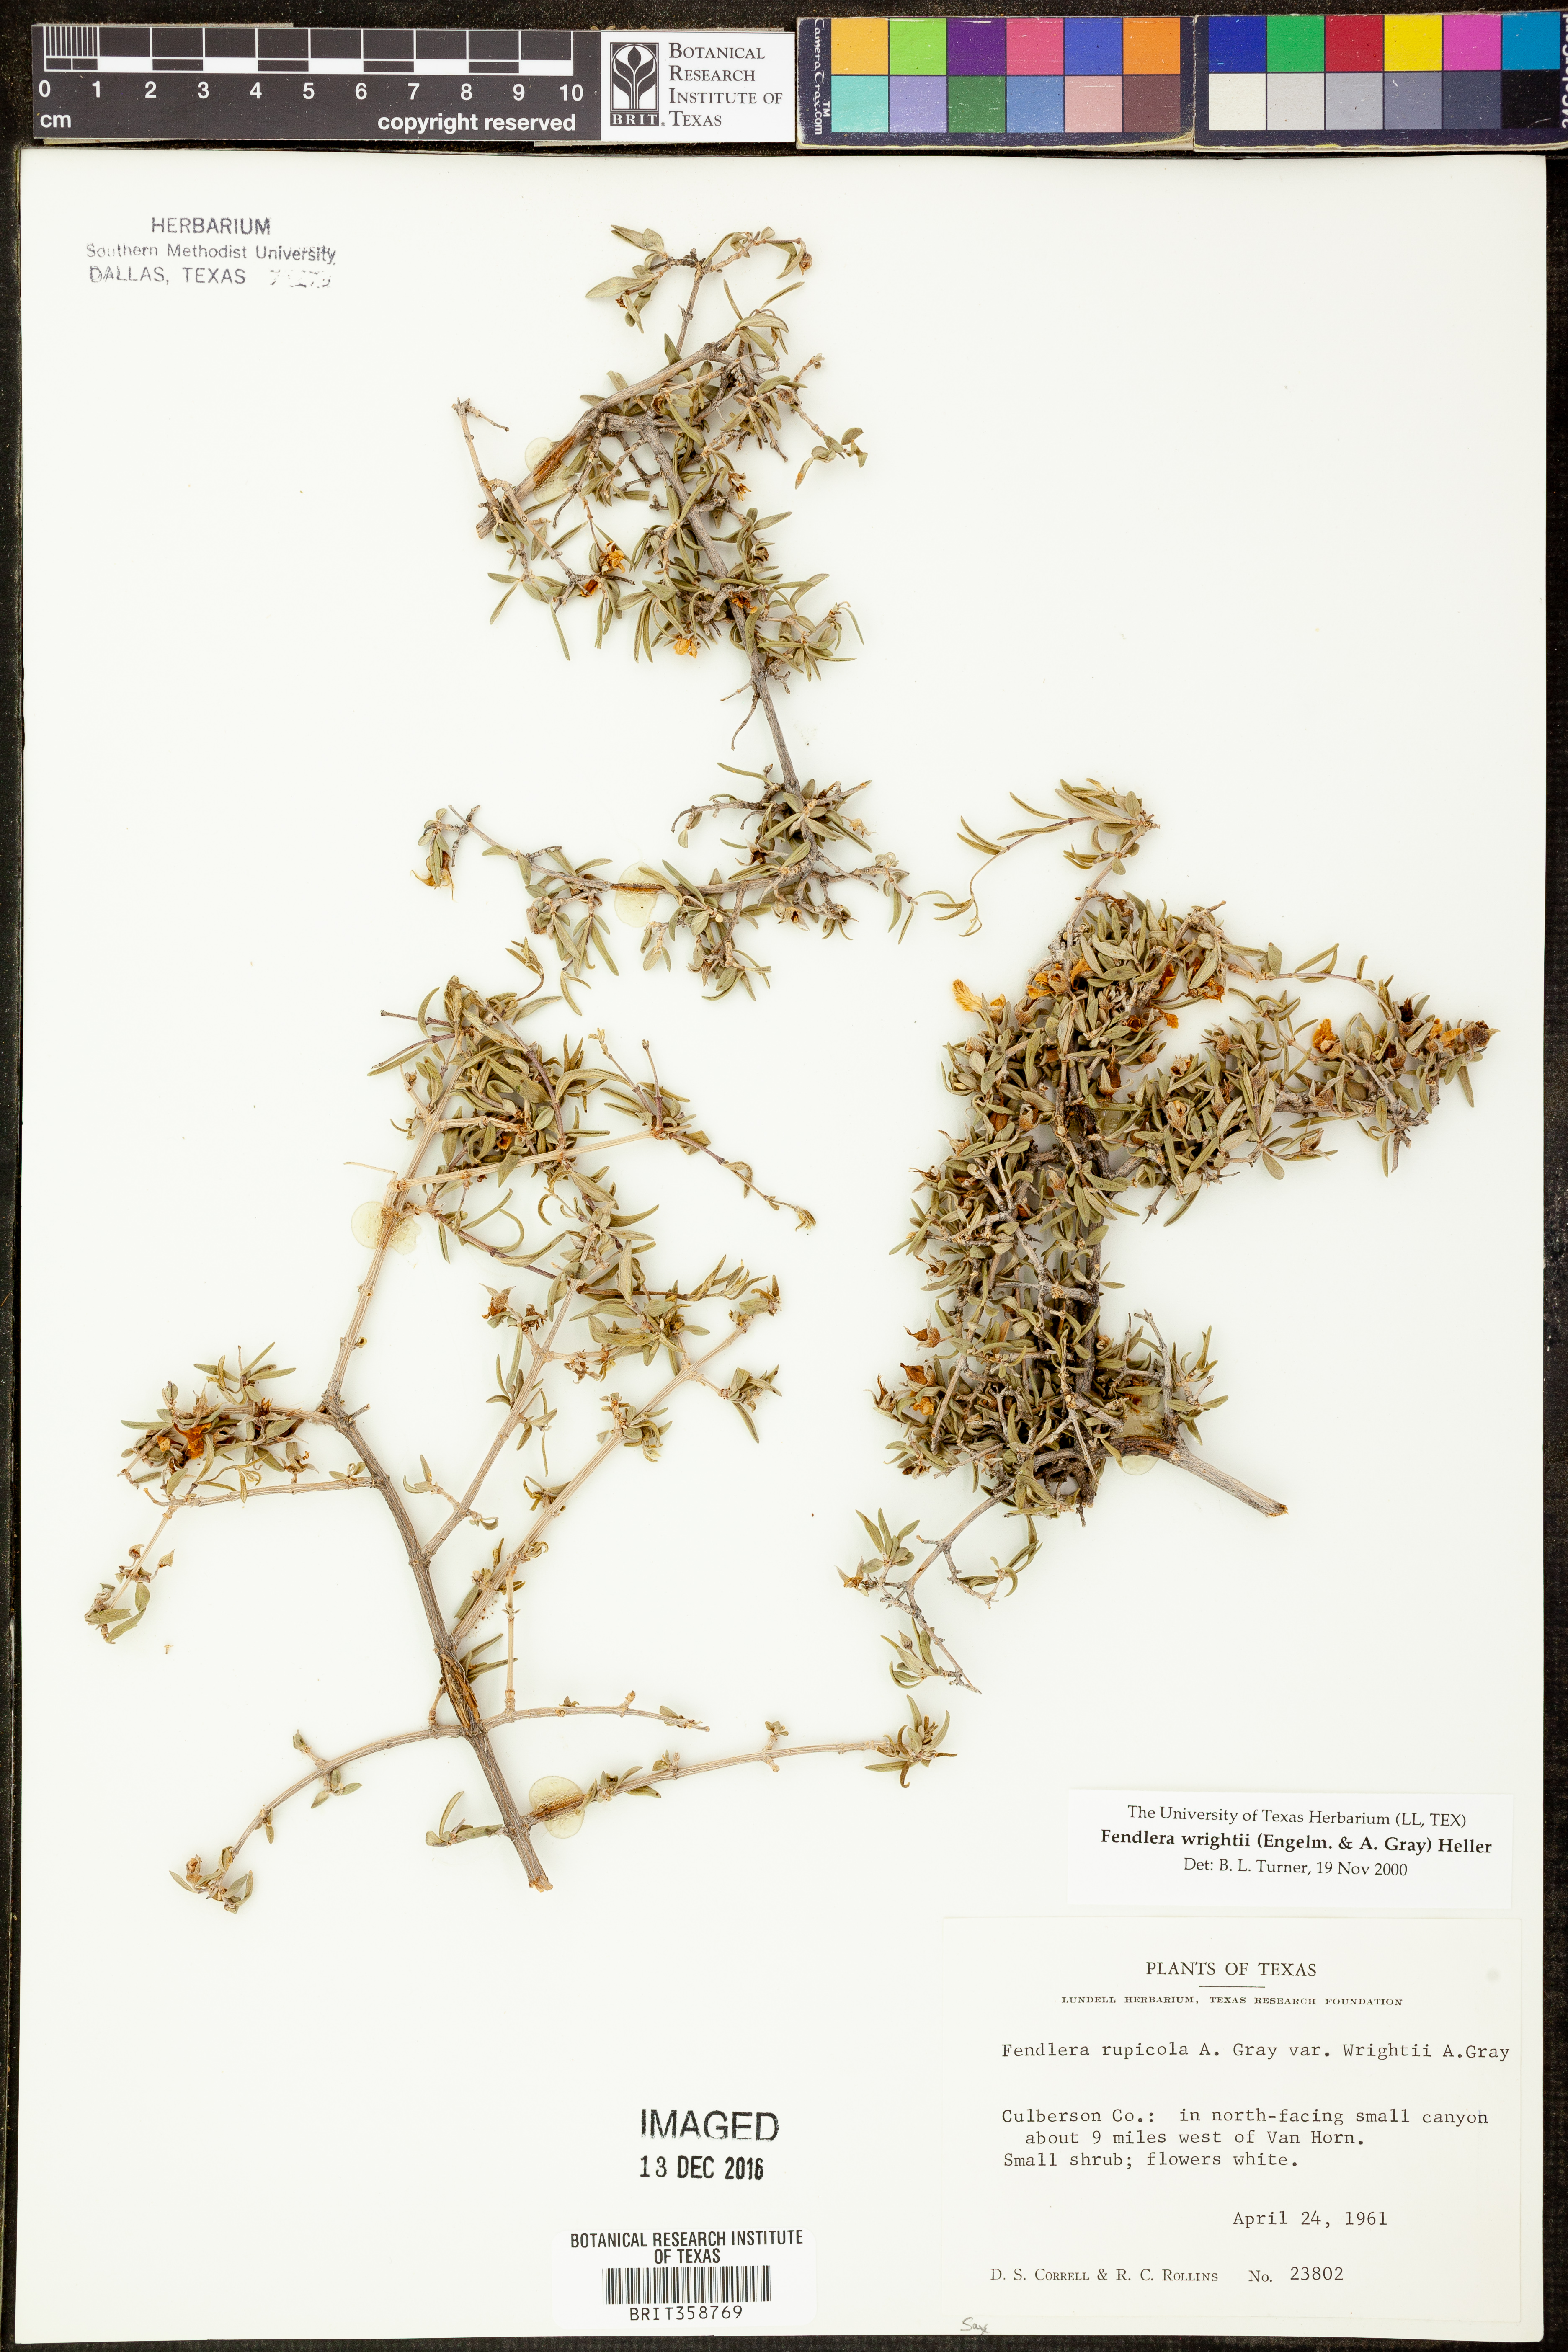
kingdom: Plantae
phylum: Tracheophyta
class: Magnoliopsida
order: Cornales
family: Hydrangeaceae
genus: Fendlera
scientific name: Fendlera wrightii
